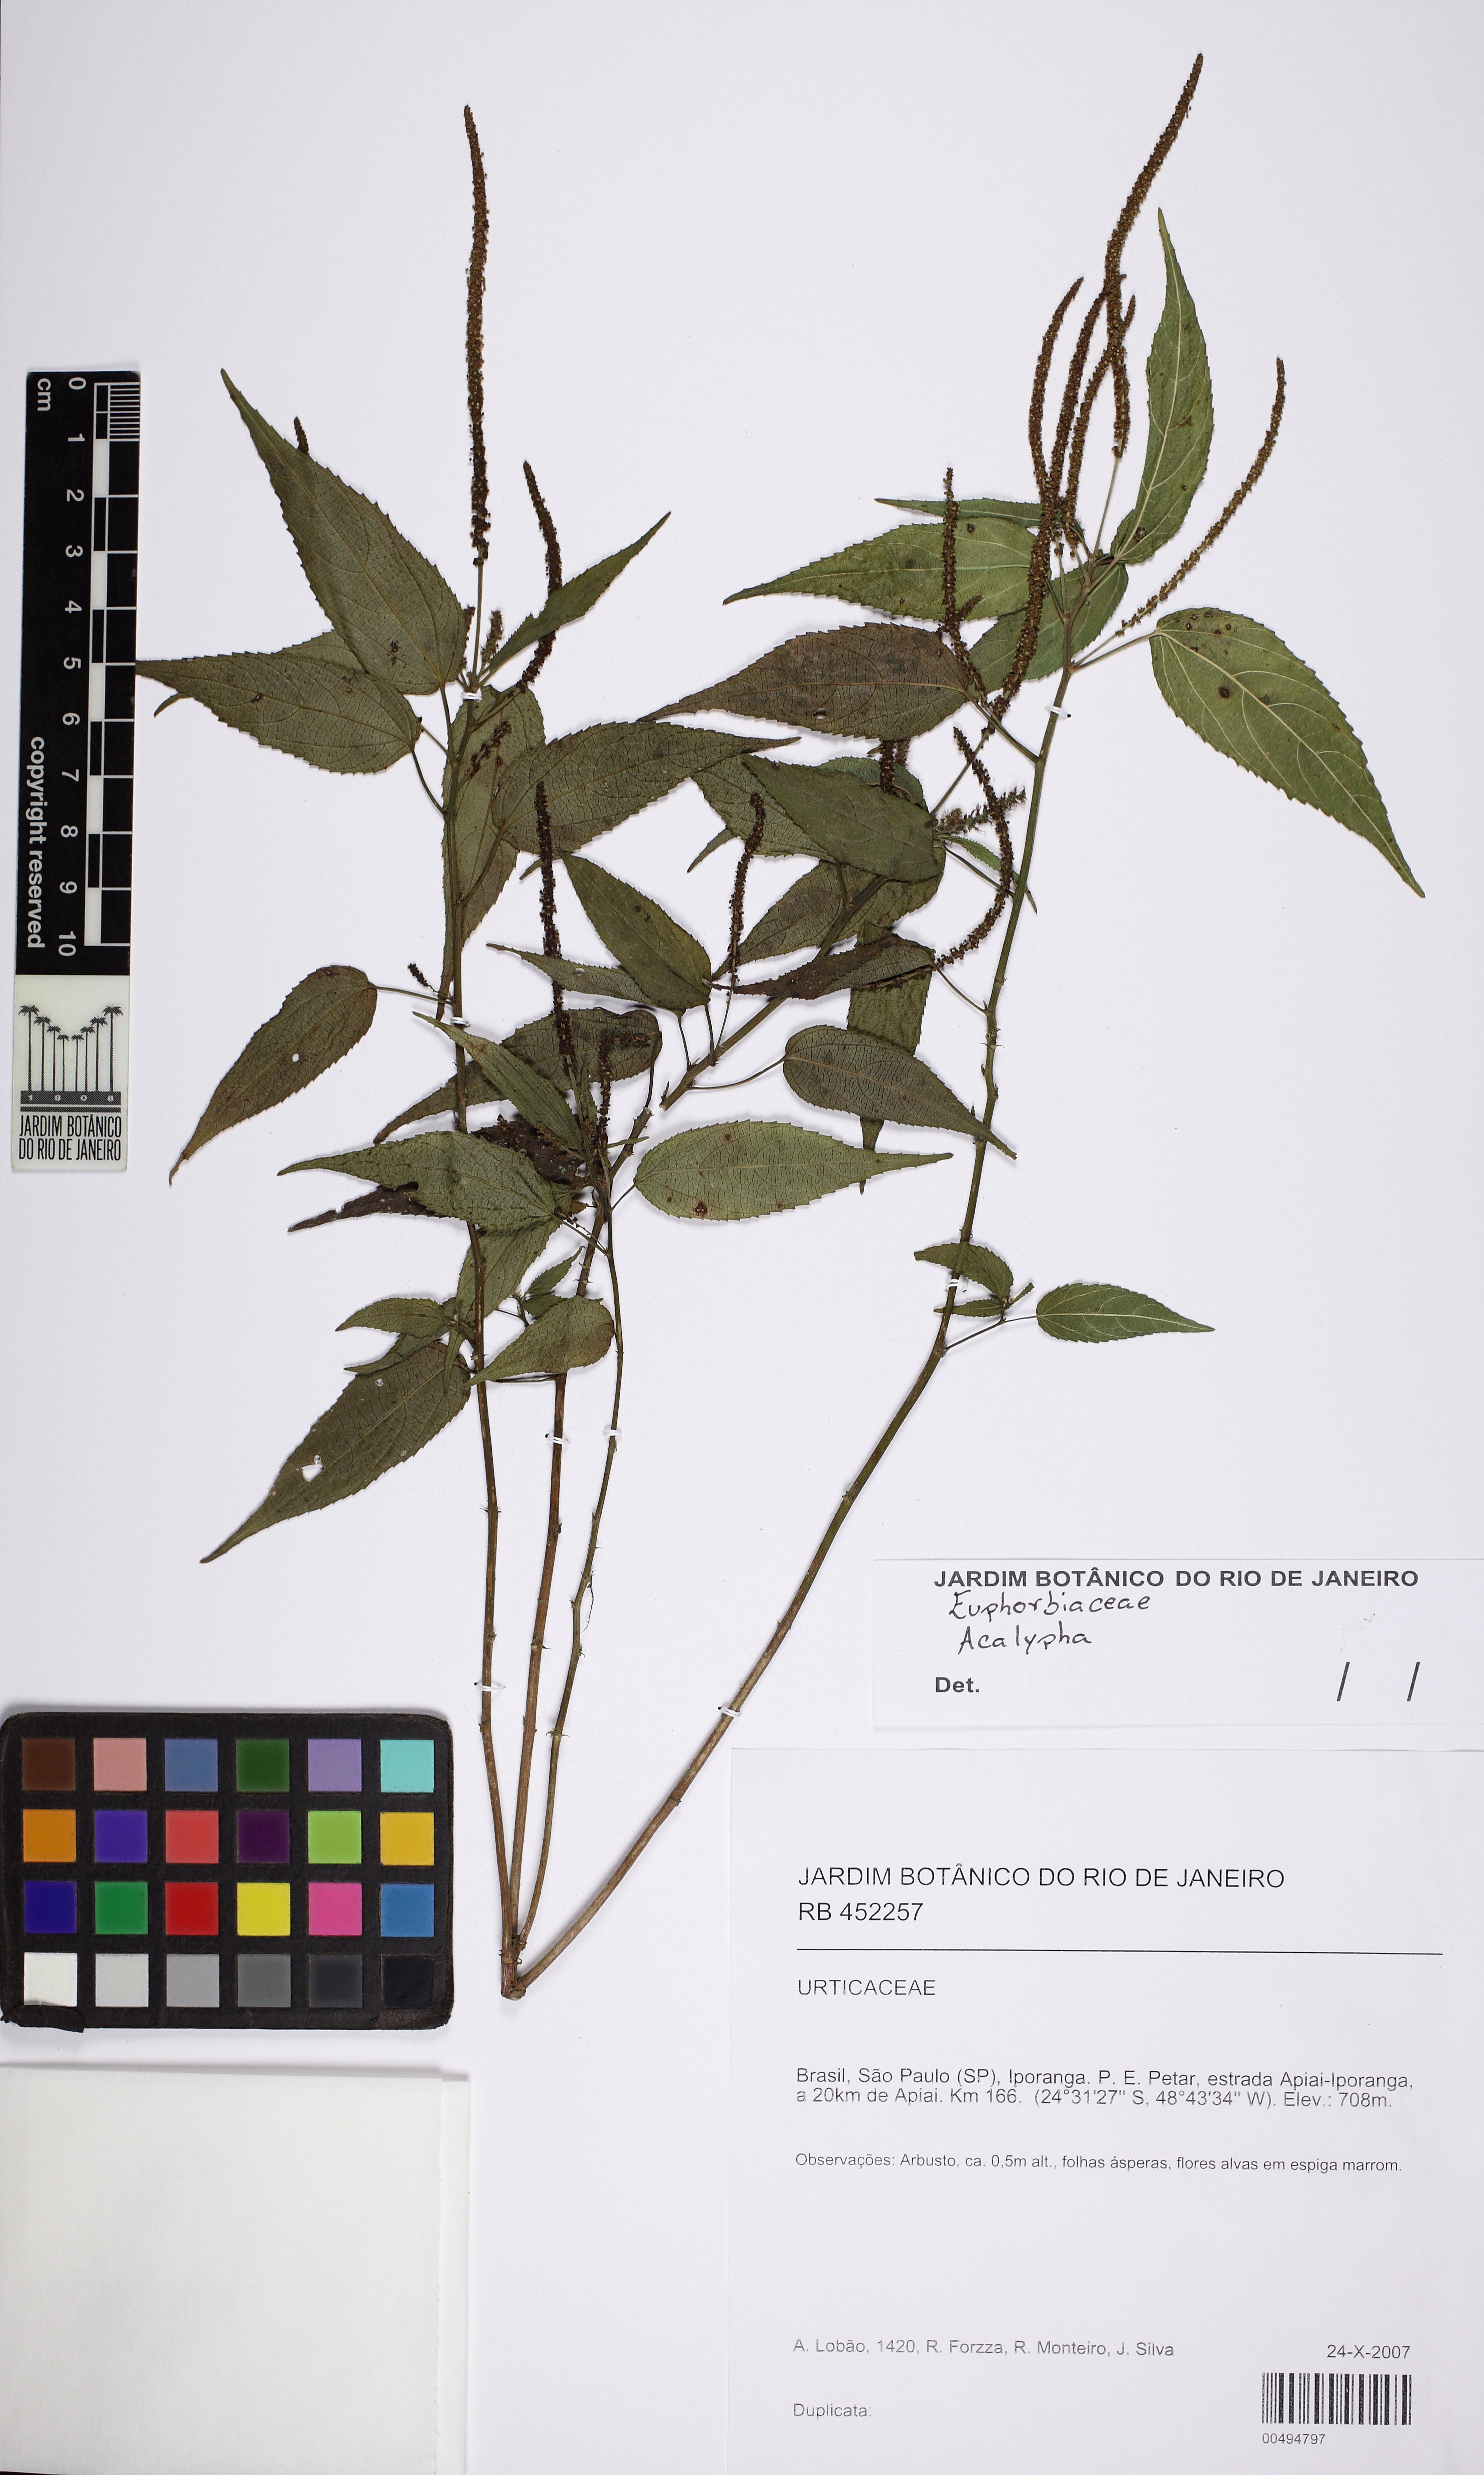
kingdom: Plantae
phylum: Tracheophyta
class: Magnoliopsida
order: Malpighiales
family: Euphorbiaceae
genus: Acalypha
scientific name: Acalypha gracilis
